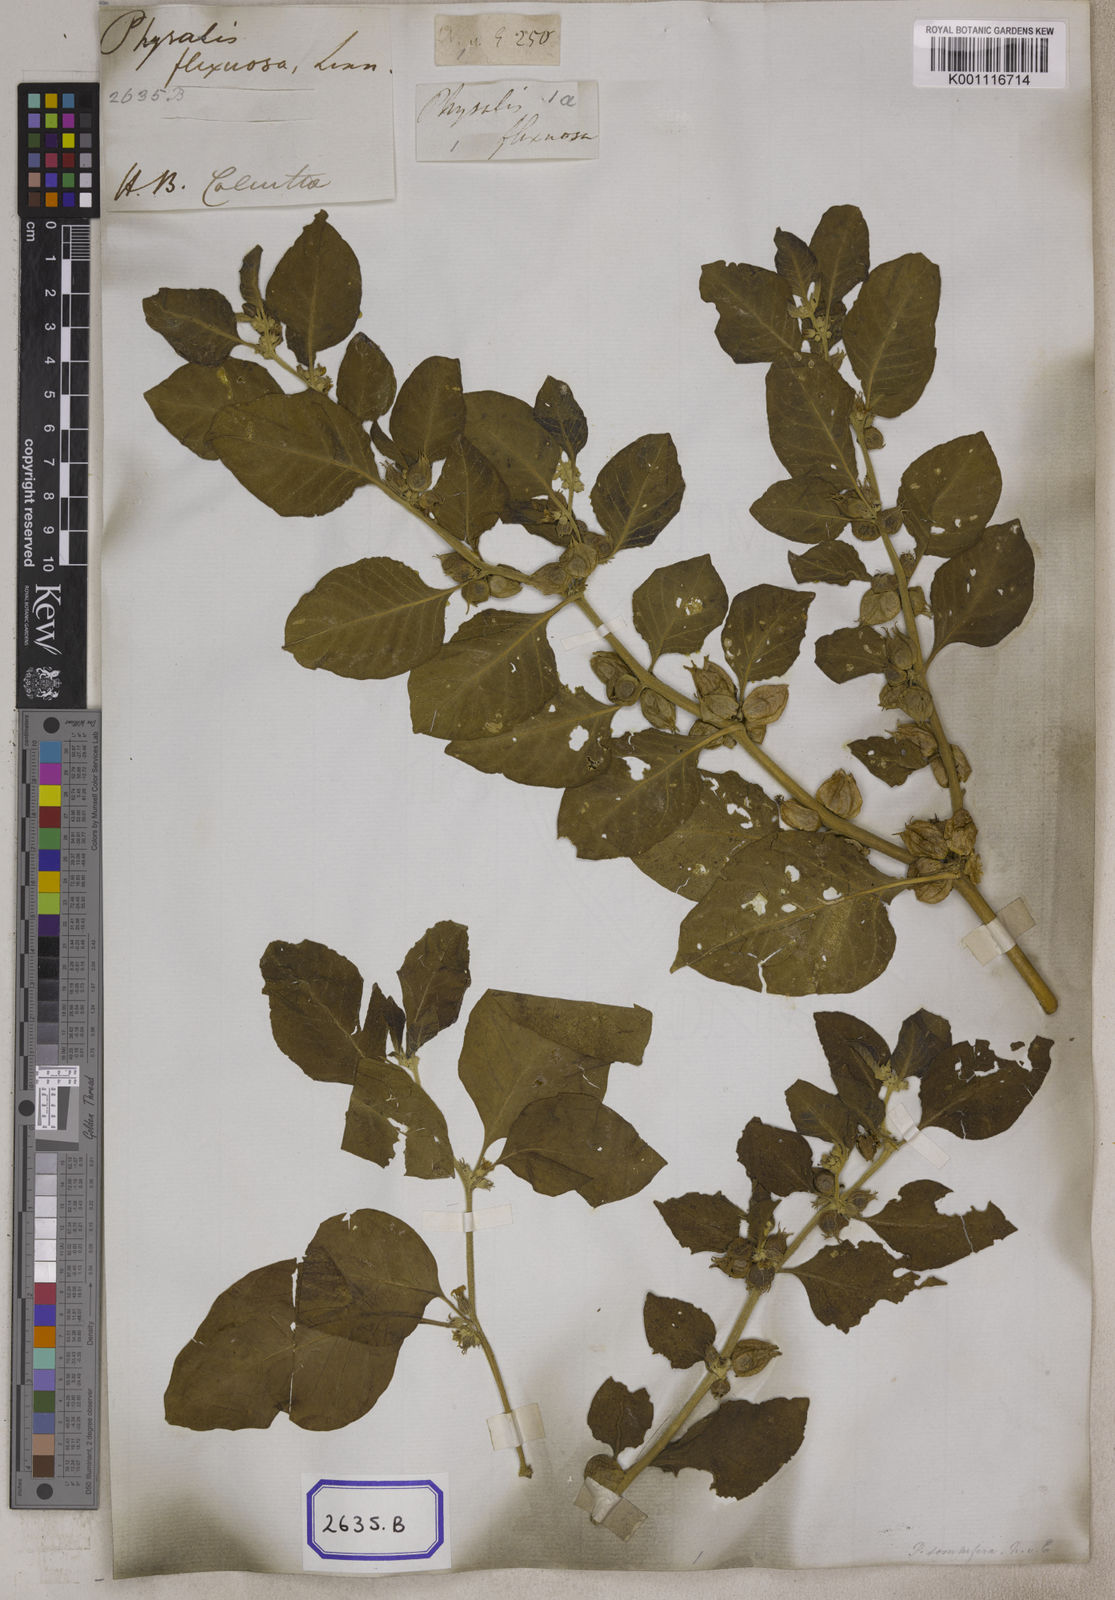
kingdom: Plantae
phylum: Tracheophyta
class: Magnoliopsida
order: Solanales
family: Solanaceae
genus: Withania
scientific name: Withania somnifera
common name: Winter-cherry
